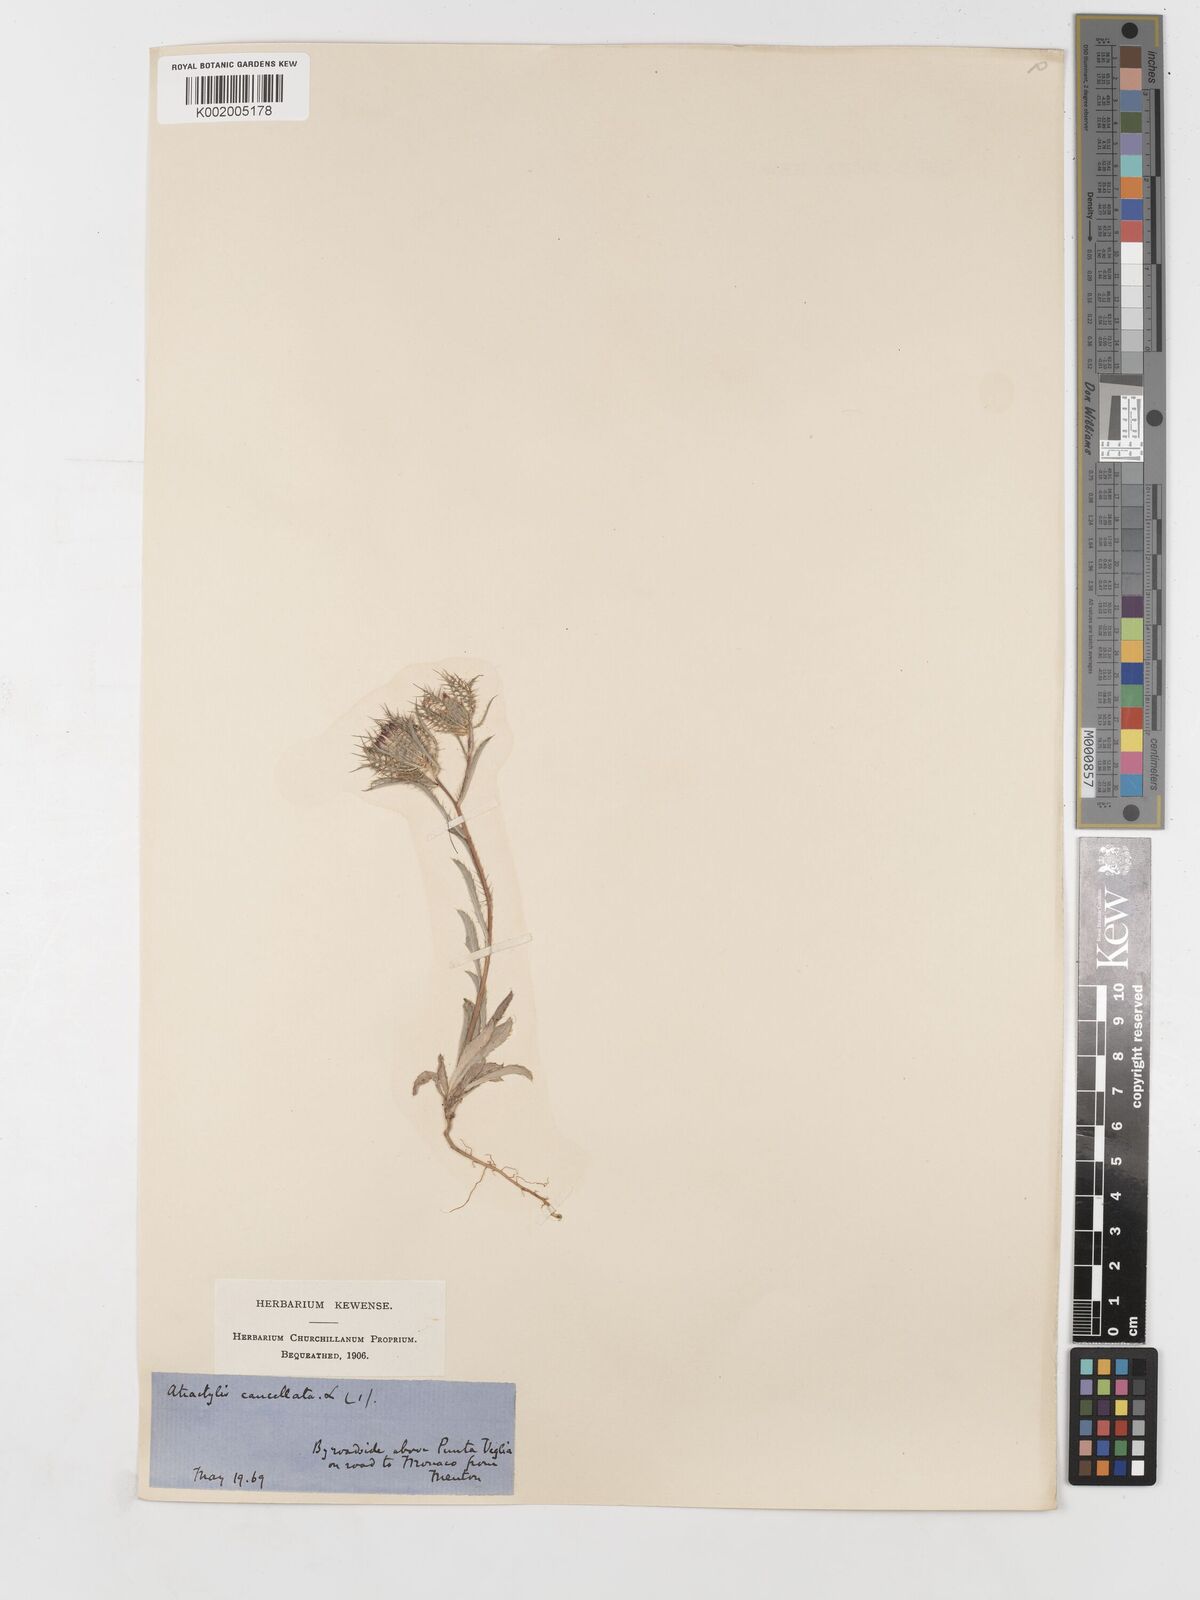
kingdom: Plantae
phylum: Tracheophyta
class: Magnoliopsida
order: Asterales
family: Asteraceae
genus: Atractylis
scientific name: Atractylis cancellata
